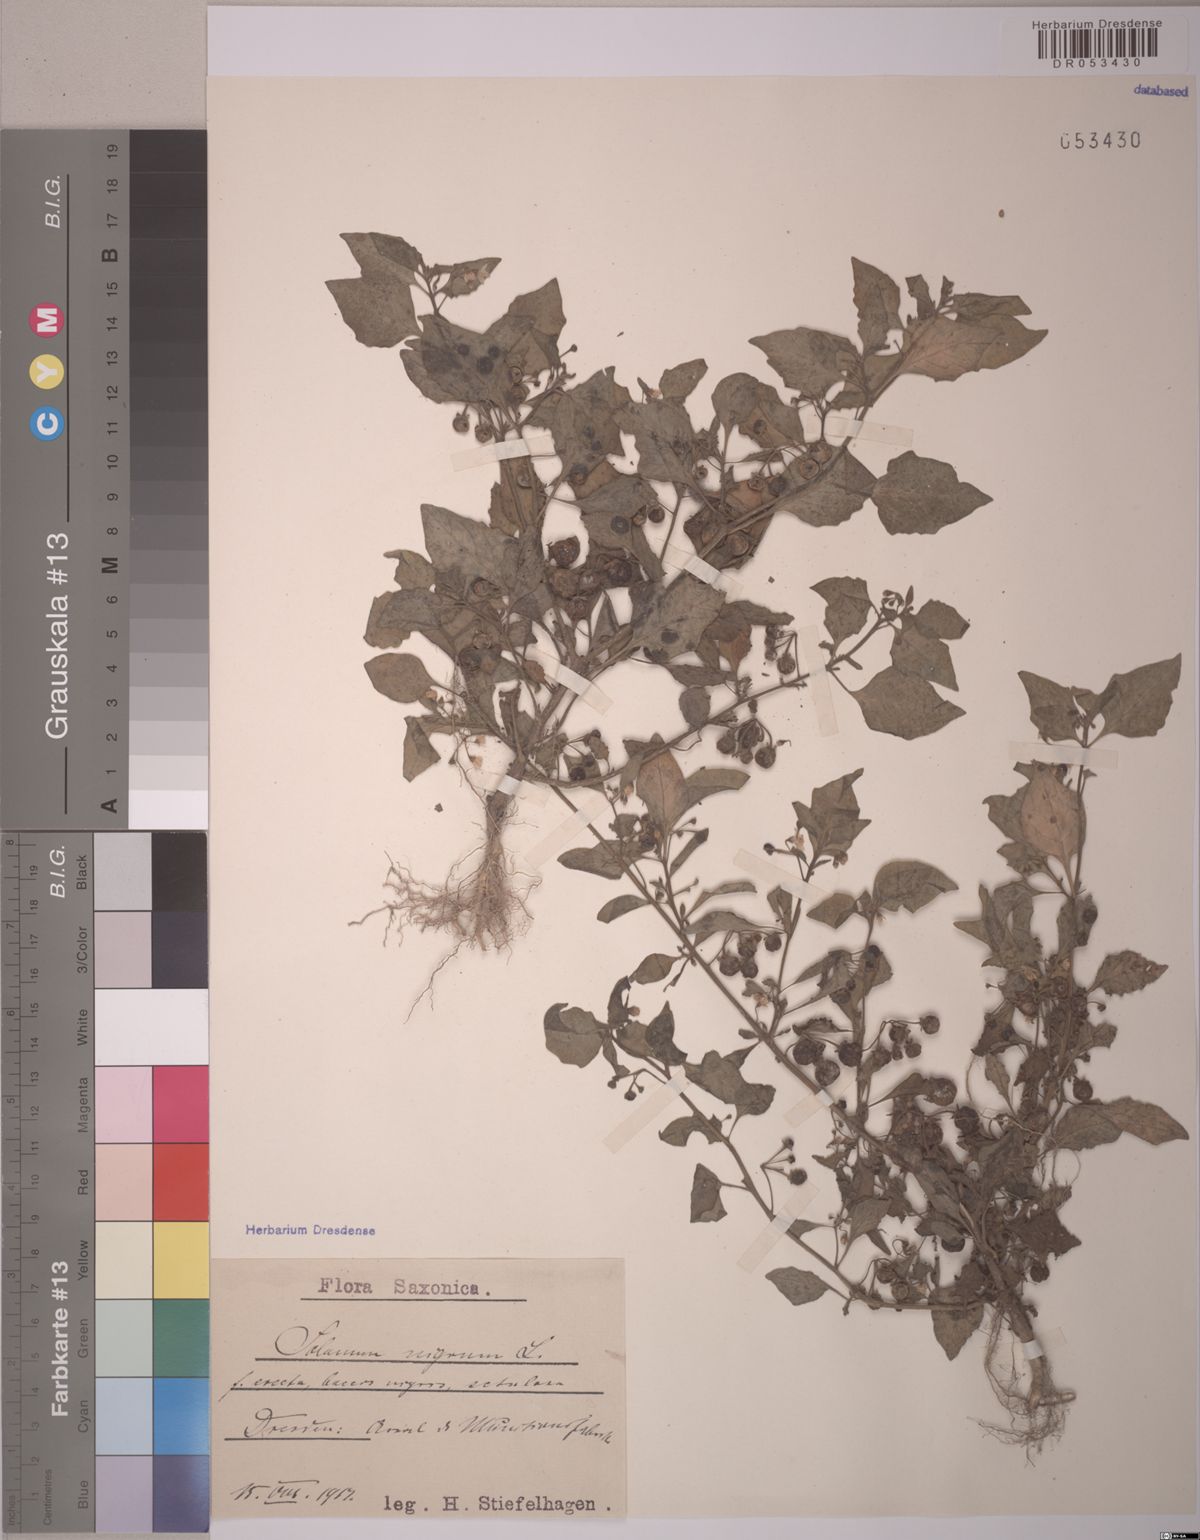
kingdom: Plantae
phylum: Tracheophyta
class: Magnoliopsida
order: Solanales
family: Solanaceae
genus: Solanum
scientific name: Solanum nigrum
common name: Black nightshade
